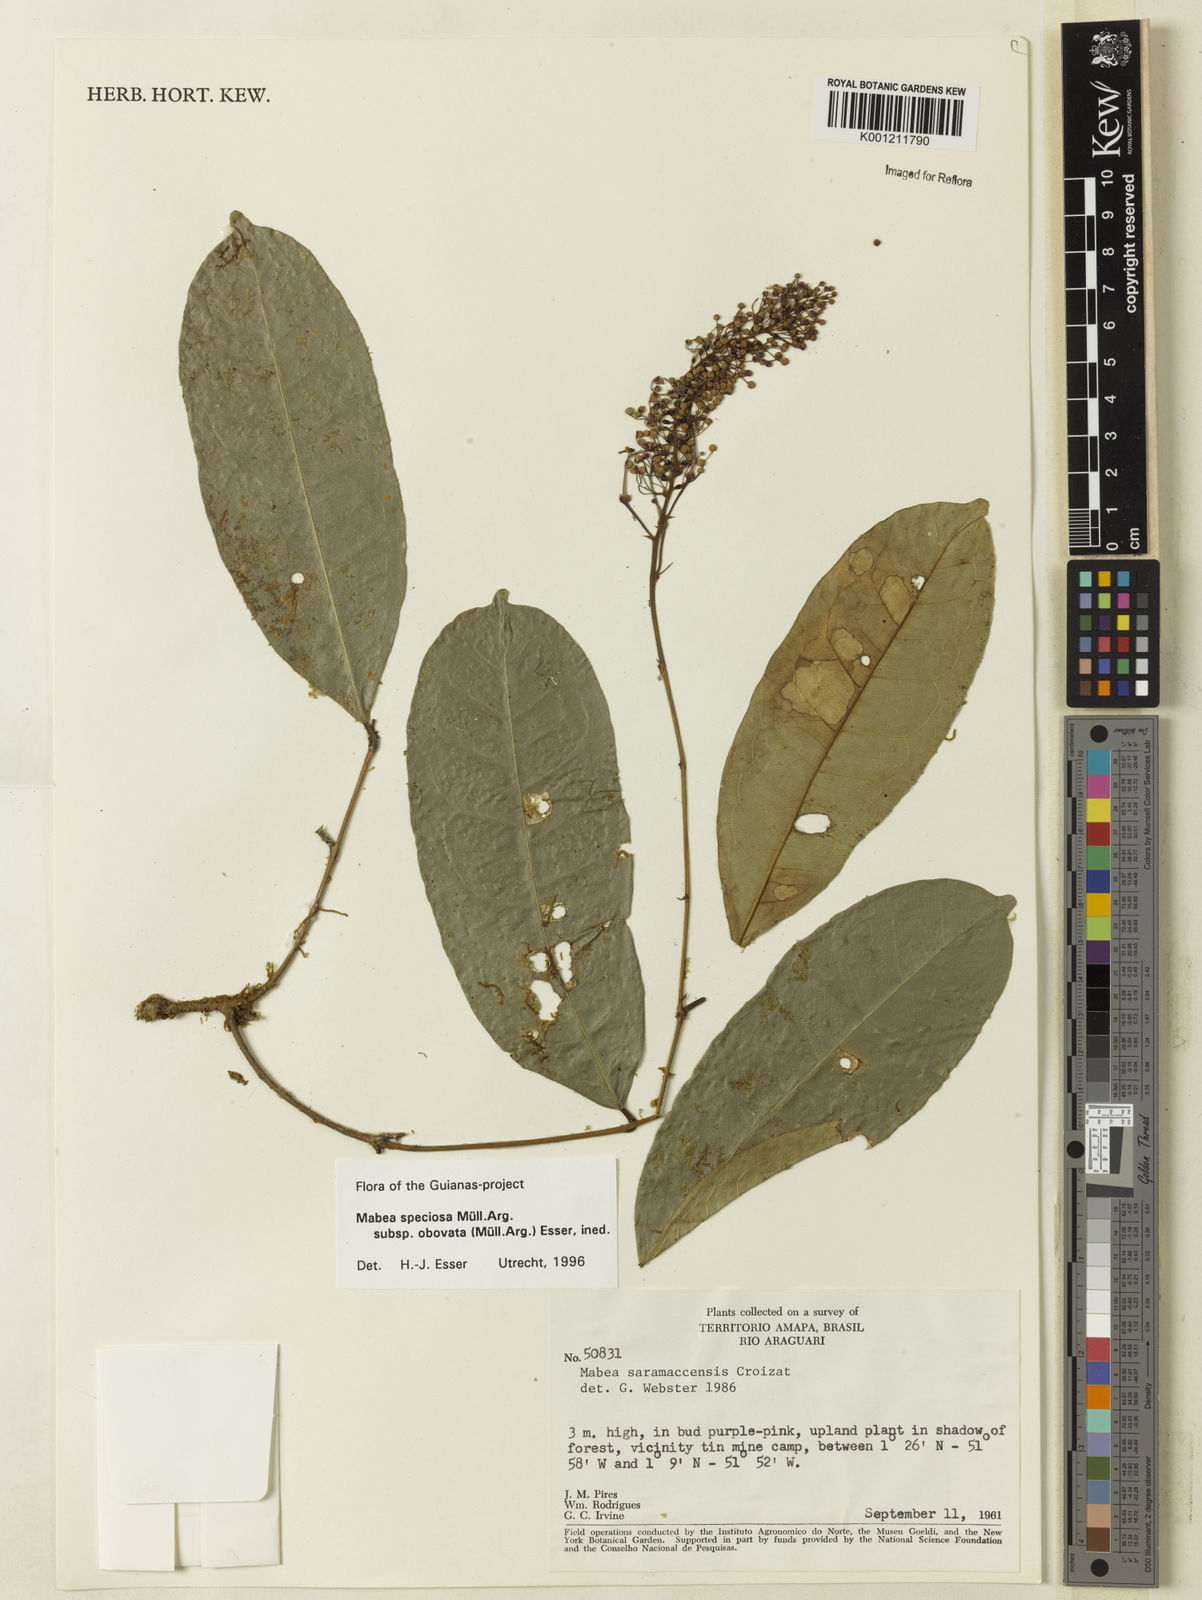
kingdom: Plantae
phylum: Tracheophyta
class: Magnoliopsida
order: Malpighiales
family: Euphorbiaceae
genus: Mabea
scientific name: Mabea
